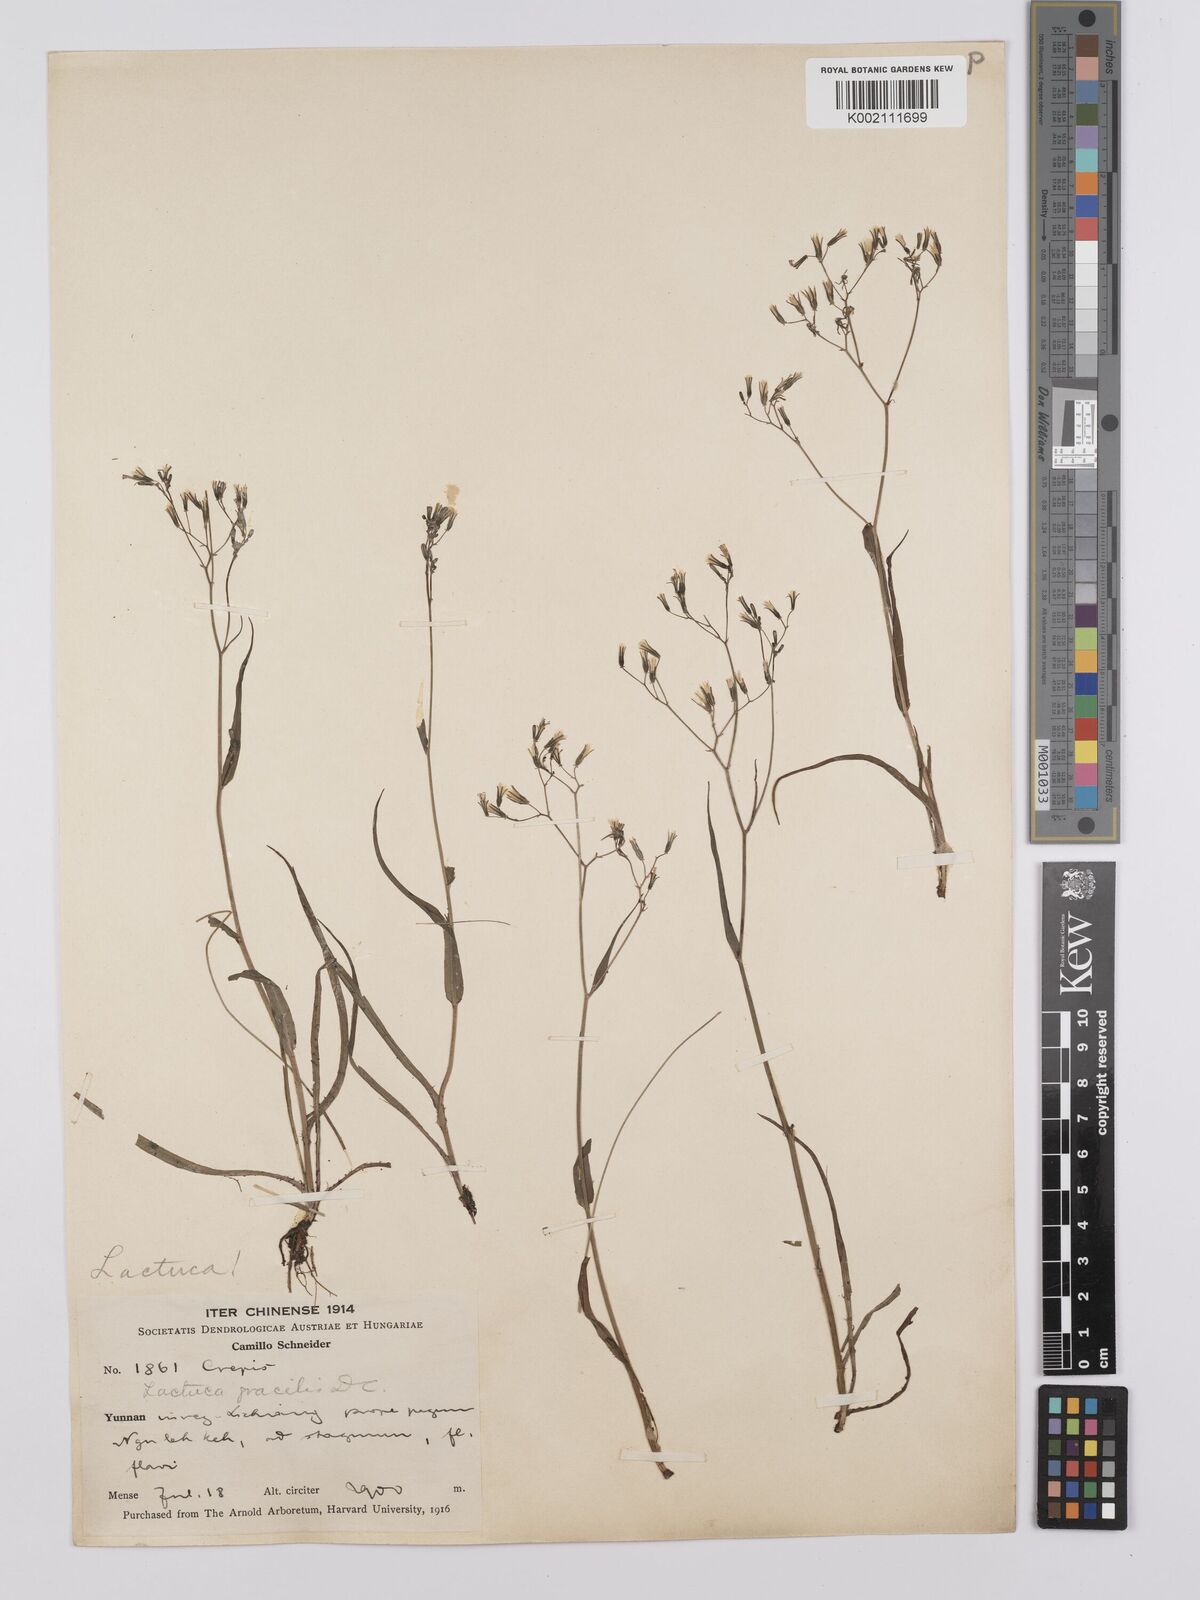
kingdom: Plantae
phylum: Tracheophyta
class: Magnoliopsida
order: Asterales
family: Asteraceae
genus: Ixeridium
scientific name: Ixeridium
